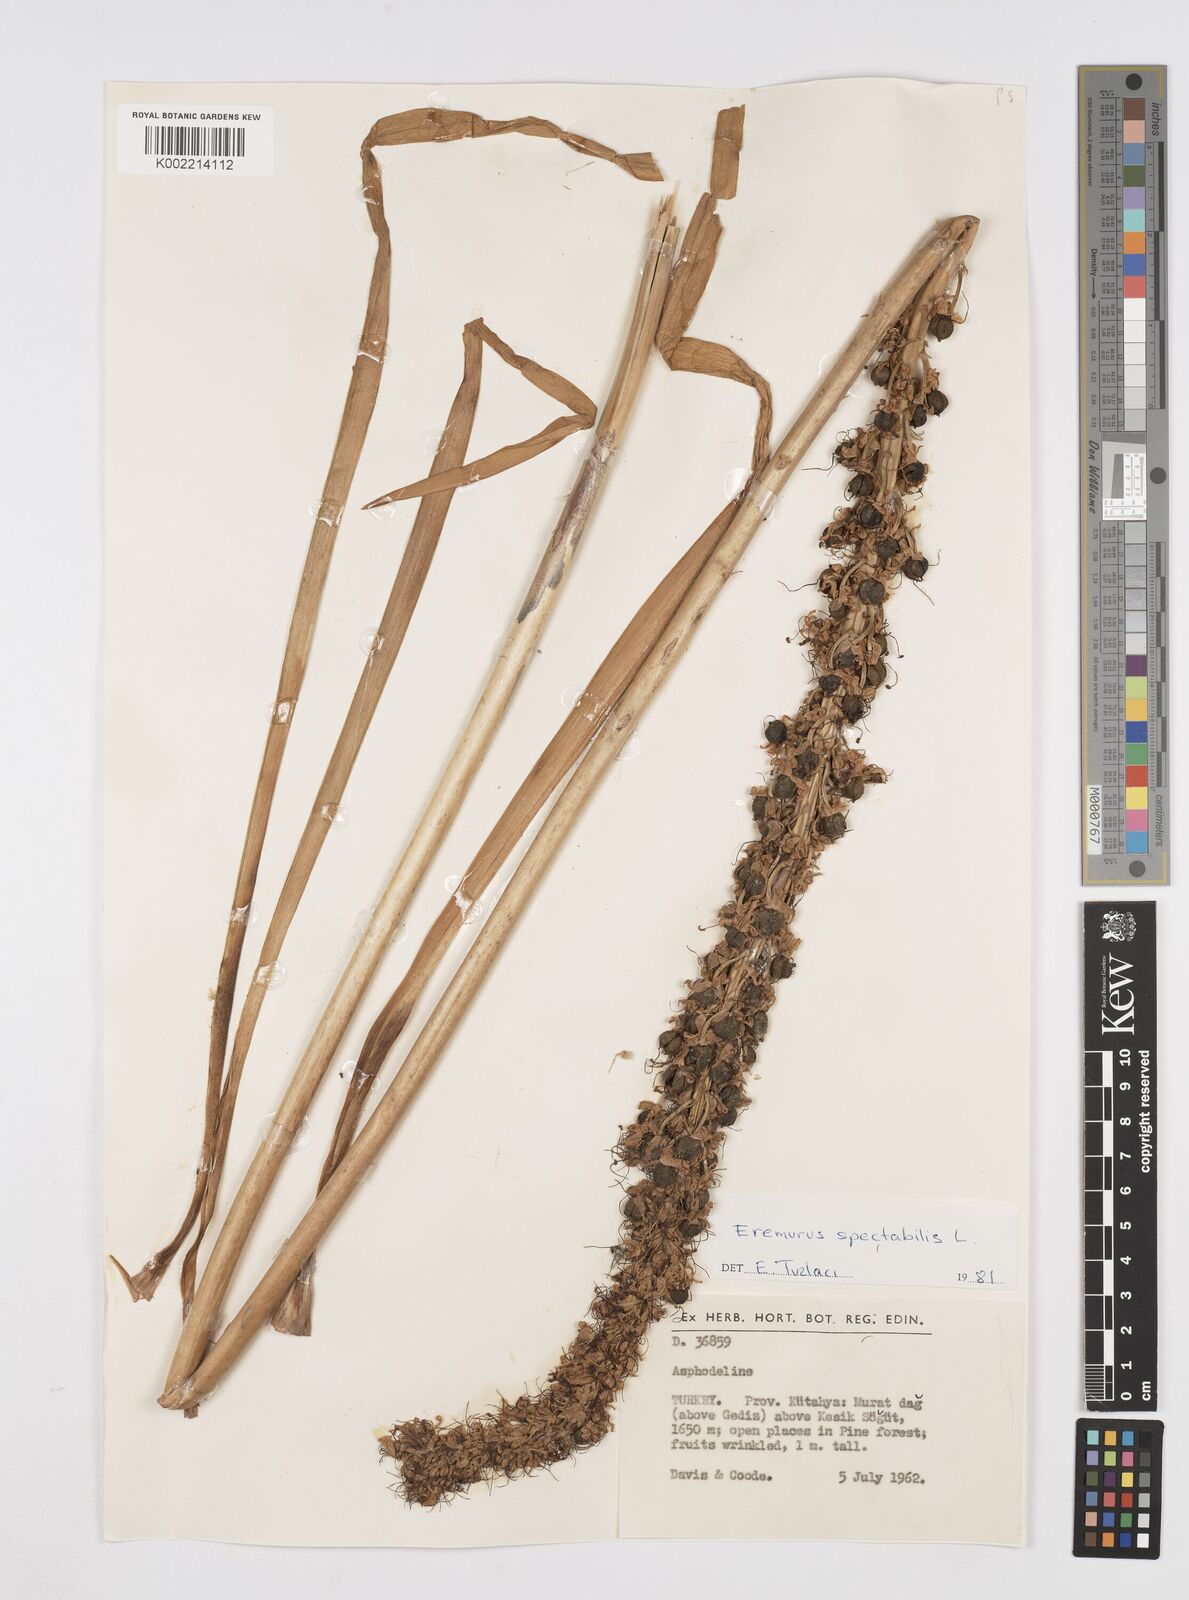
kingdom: Plantae
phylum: Tracheophyta
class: Liliopsida
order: Asparagales
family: Asphodelaceae
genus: Eremurus
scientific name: Eremurus spectabilis
